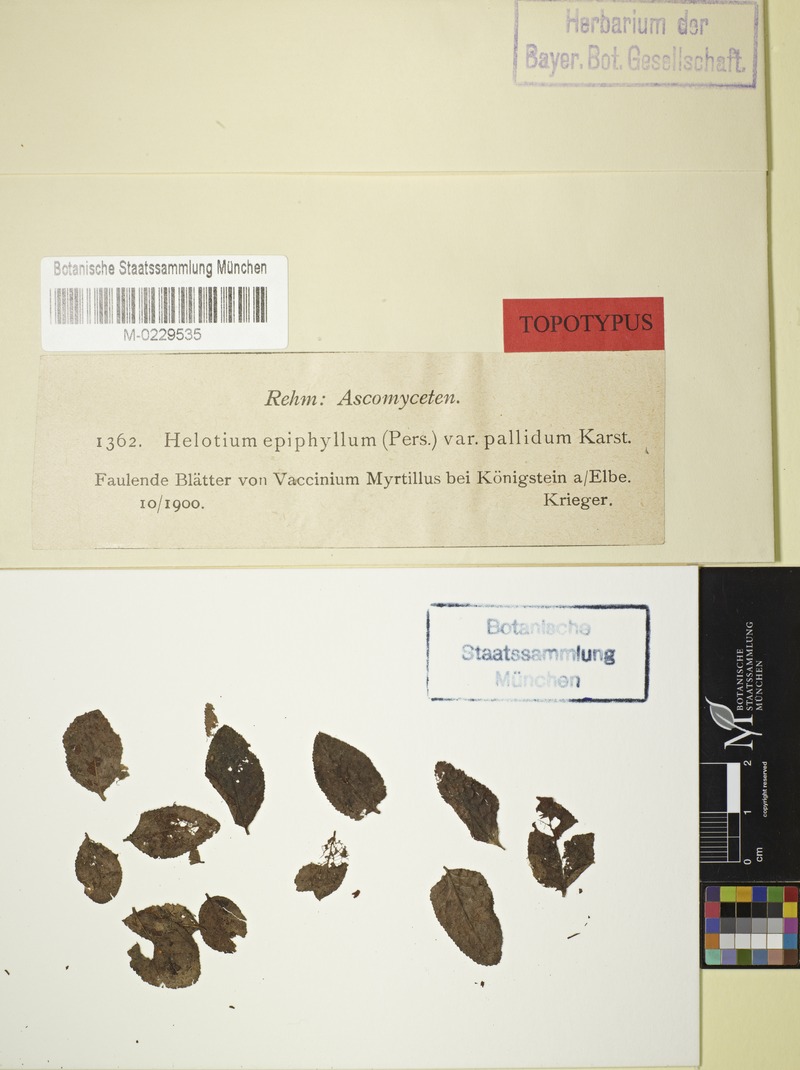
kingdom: Fungi
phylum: Ascomycota
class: Leotiomycetes
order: Helotiales
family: Helotiaceae
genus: Hymenoscyphus
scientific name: Hymenoscyphus epiphyllus
